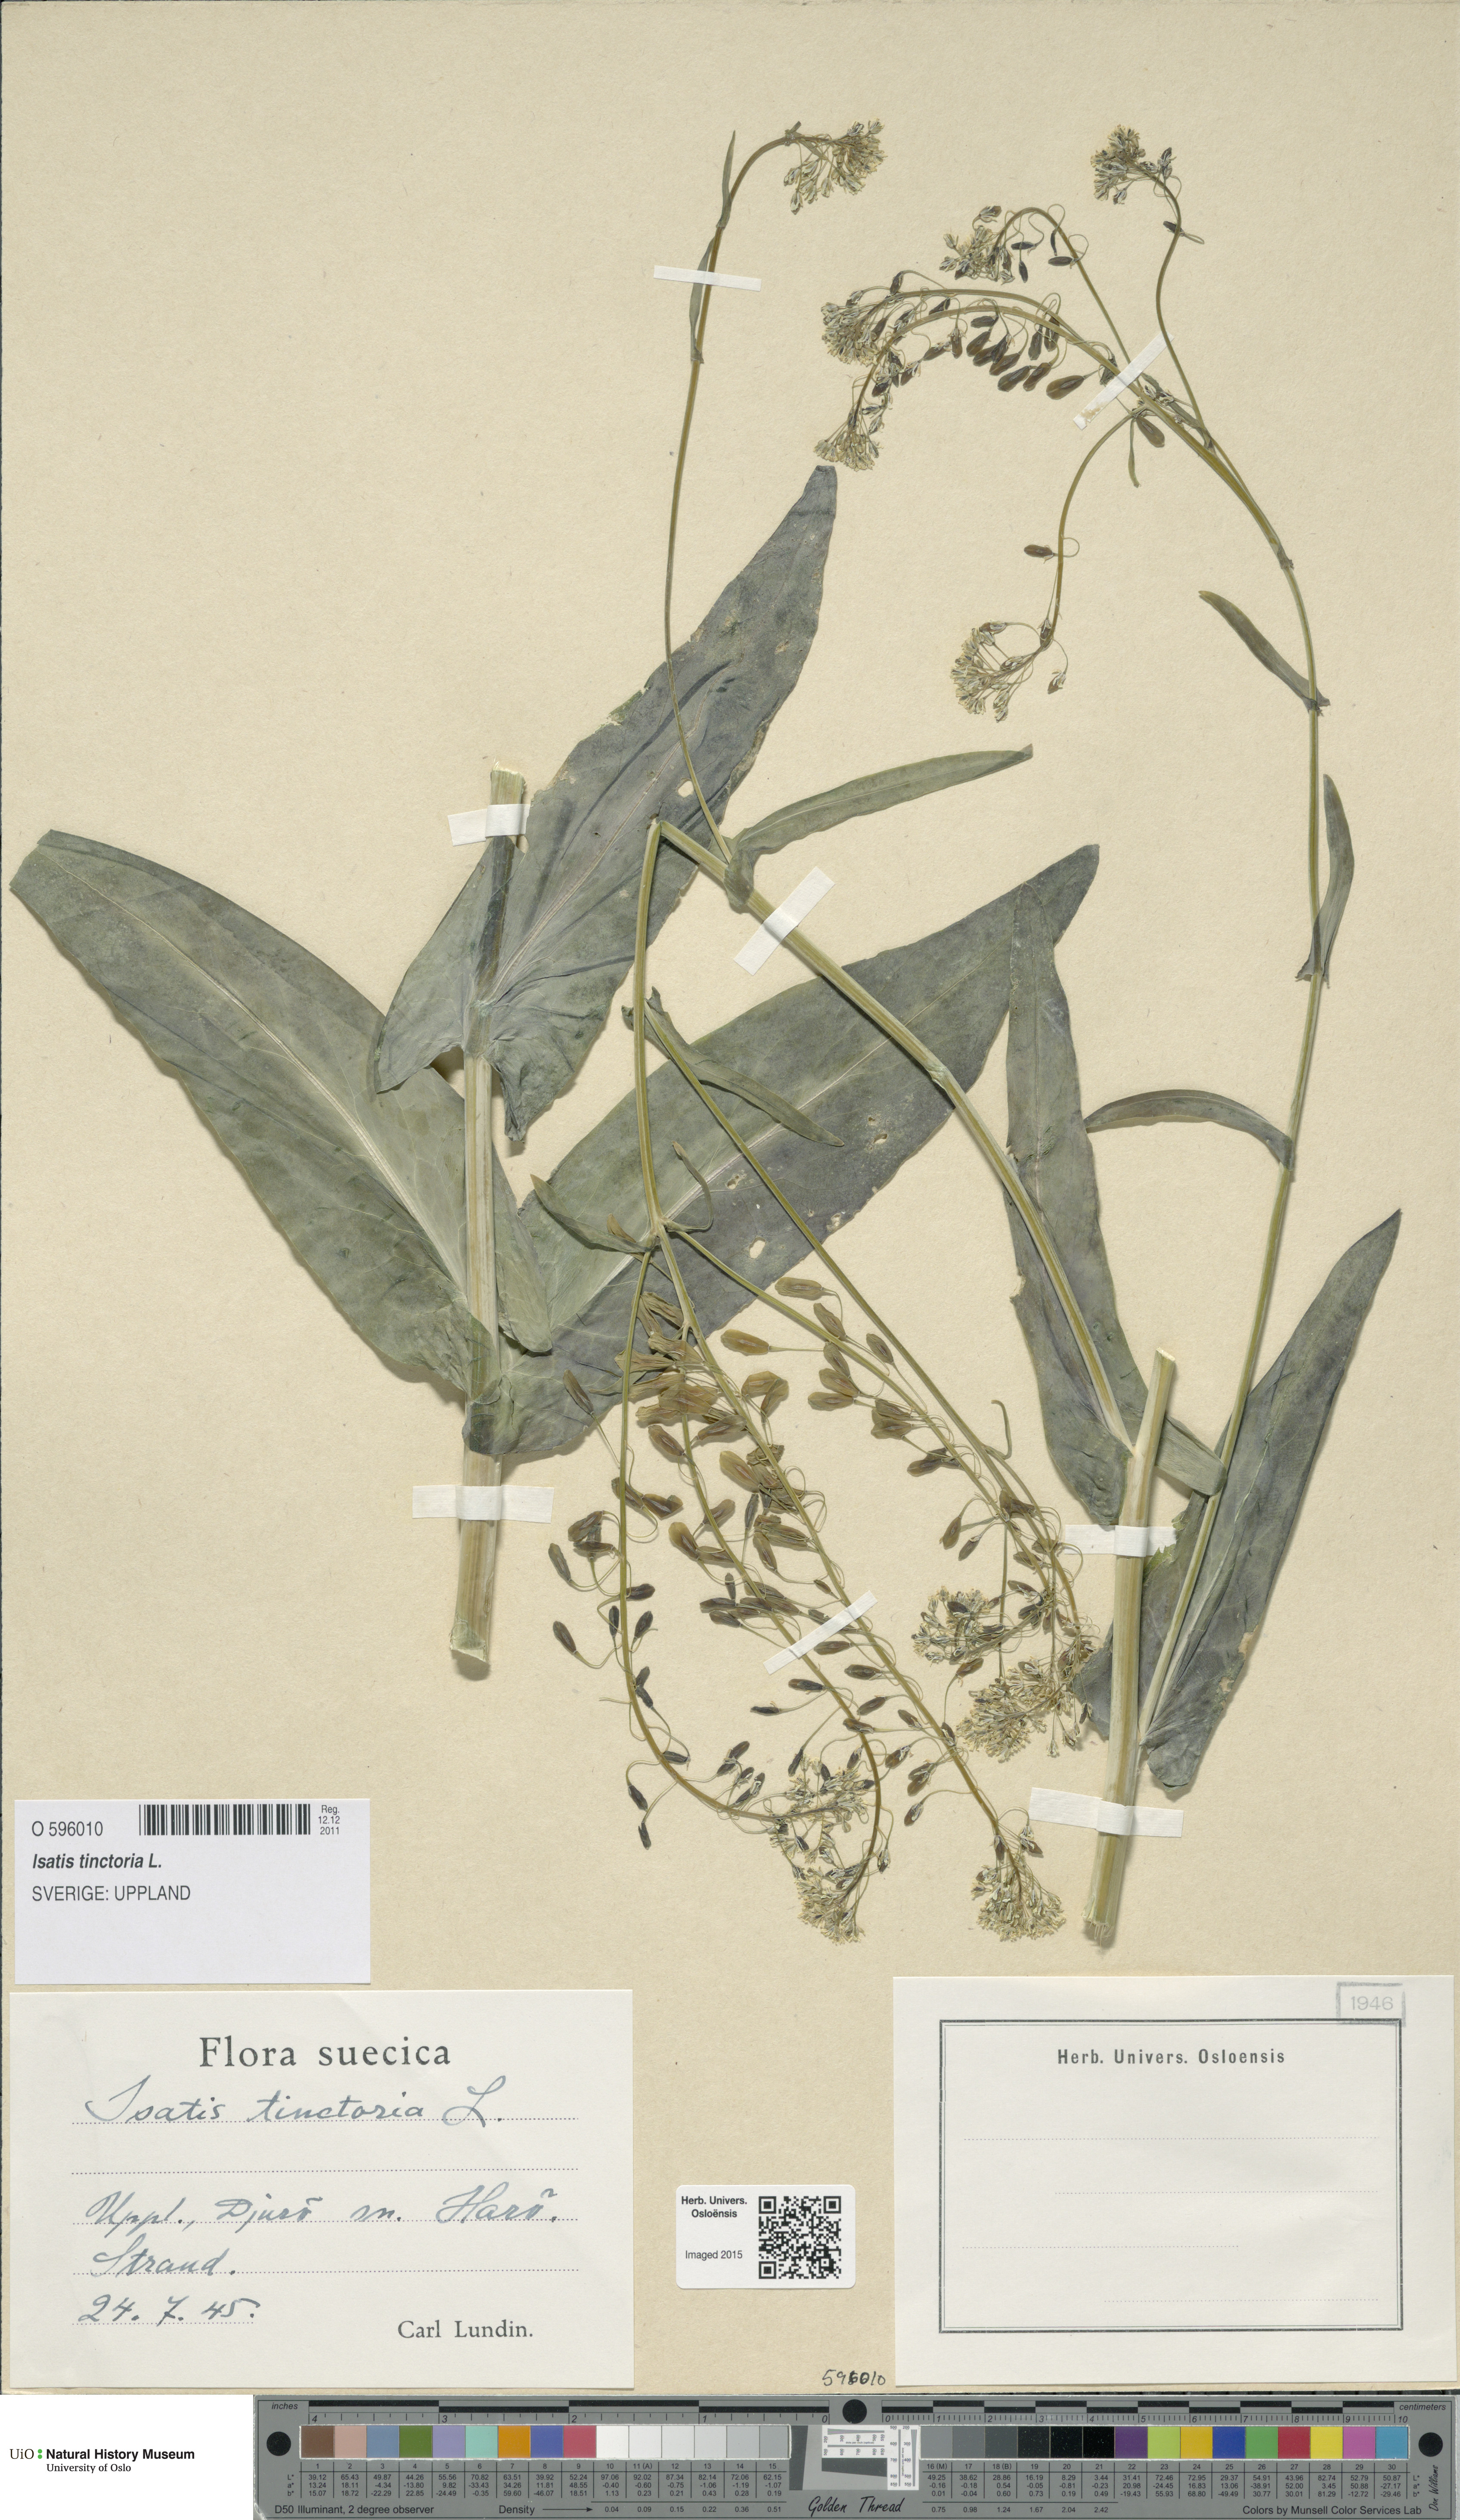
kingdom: Plantae
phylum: Tracheophyta
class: Magnoliopsida
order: Brassicales
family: Brassicaceae
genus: Isatis
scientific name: Isatis tinctoria
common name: Woad
